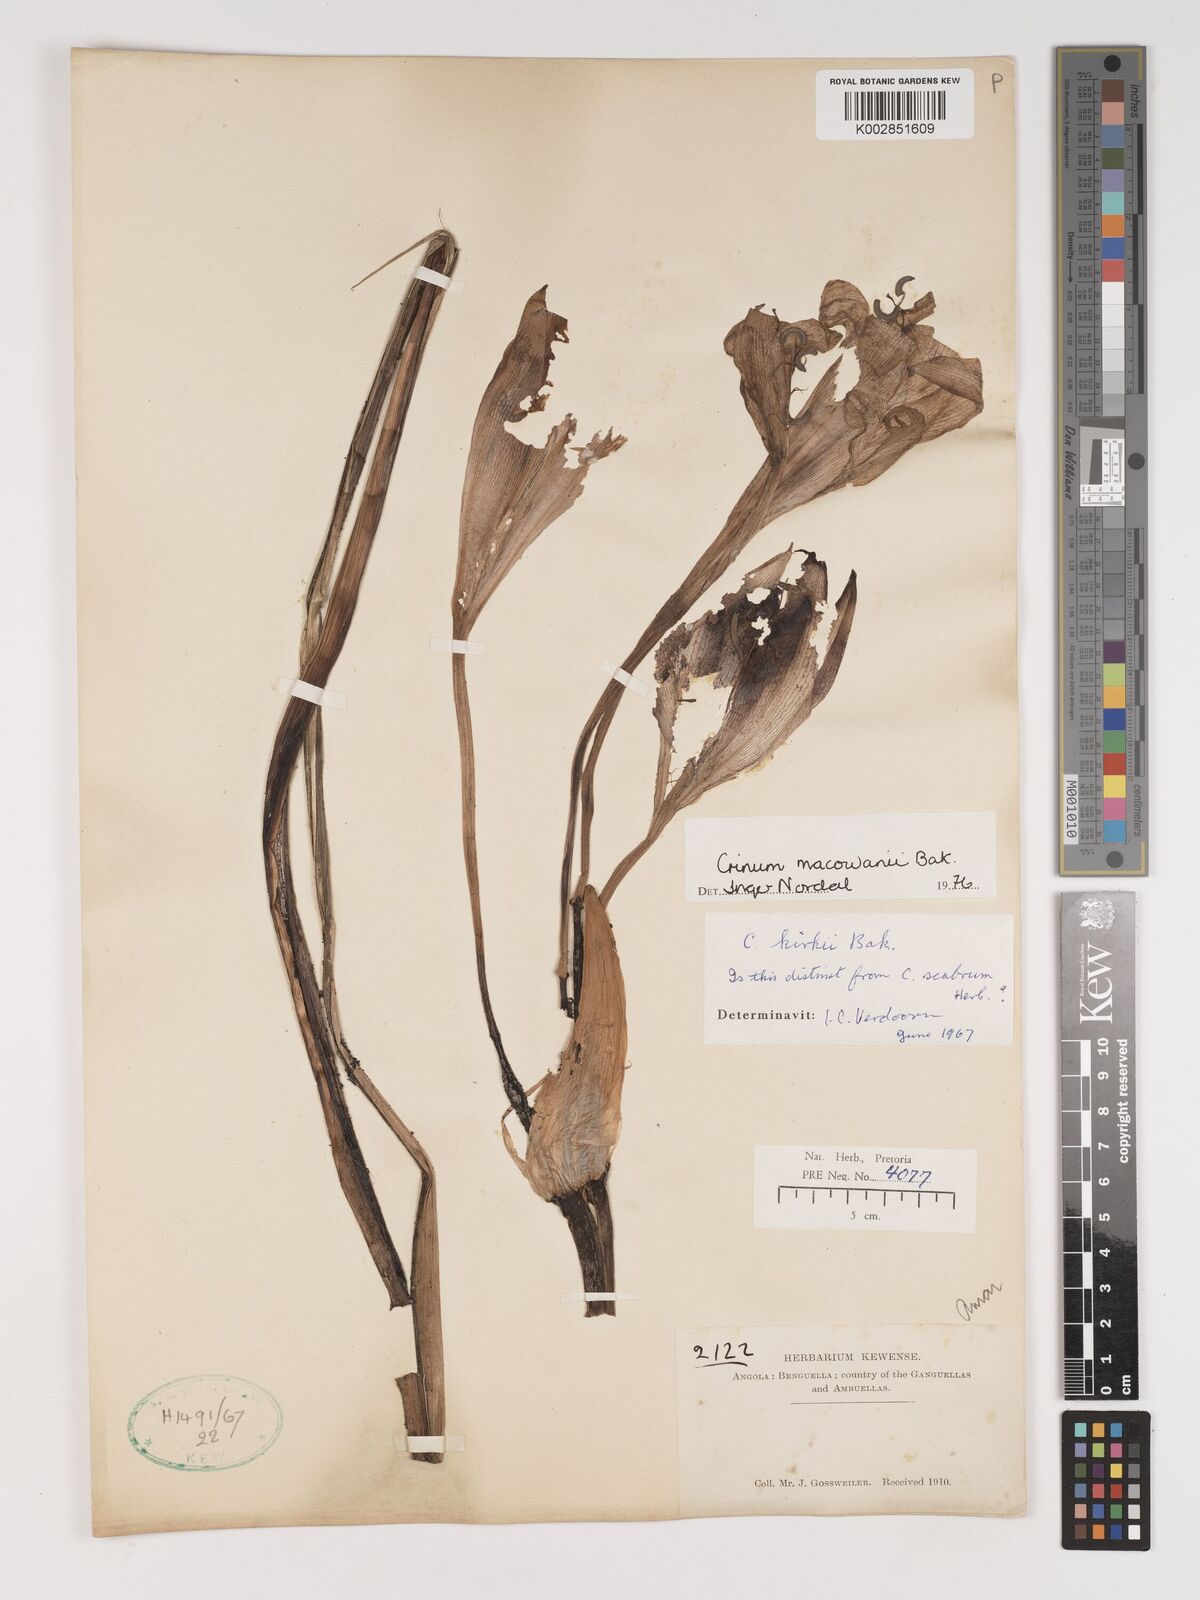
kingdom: Plantae
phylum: Tracheophyta
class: Liliopsida
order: Asparagales
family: Amaryllidaceae
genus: Crinum
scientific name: Crinum macowanii
